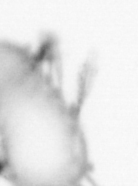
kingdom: Animalia
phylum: Annelida
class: Polychaeta
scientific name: Polychaeta
